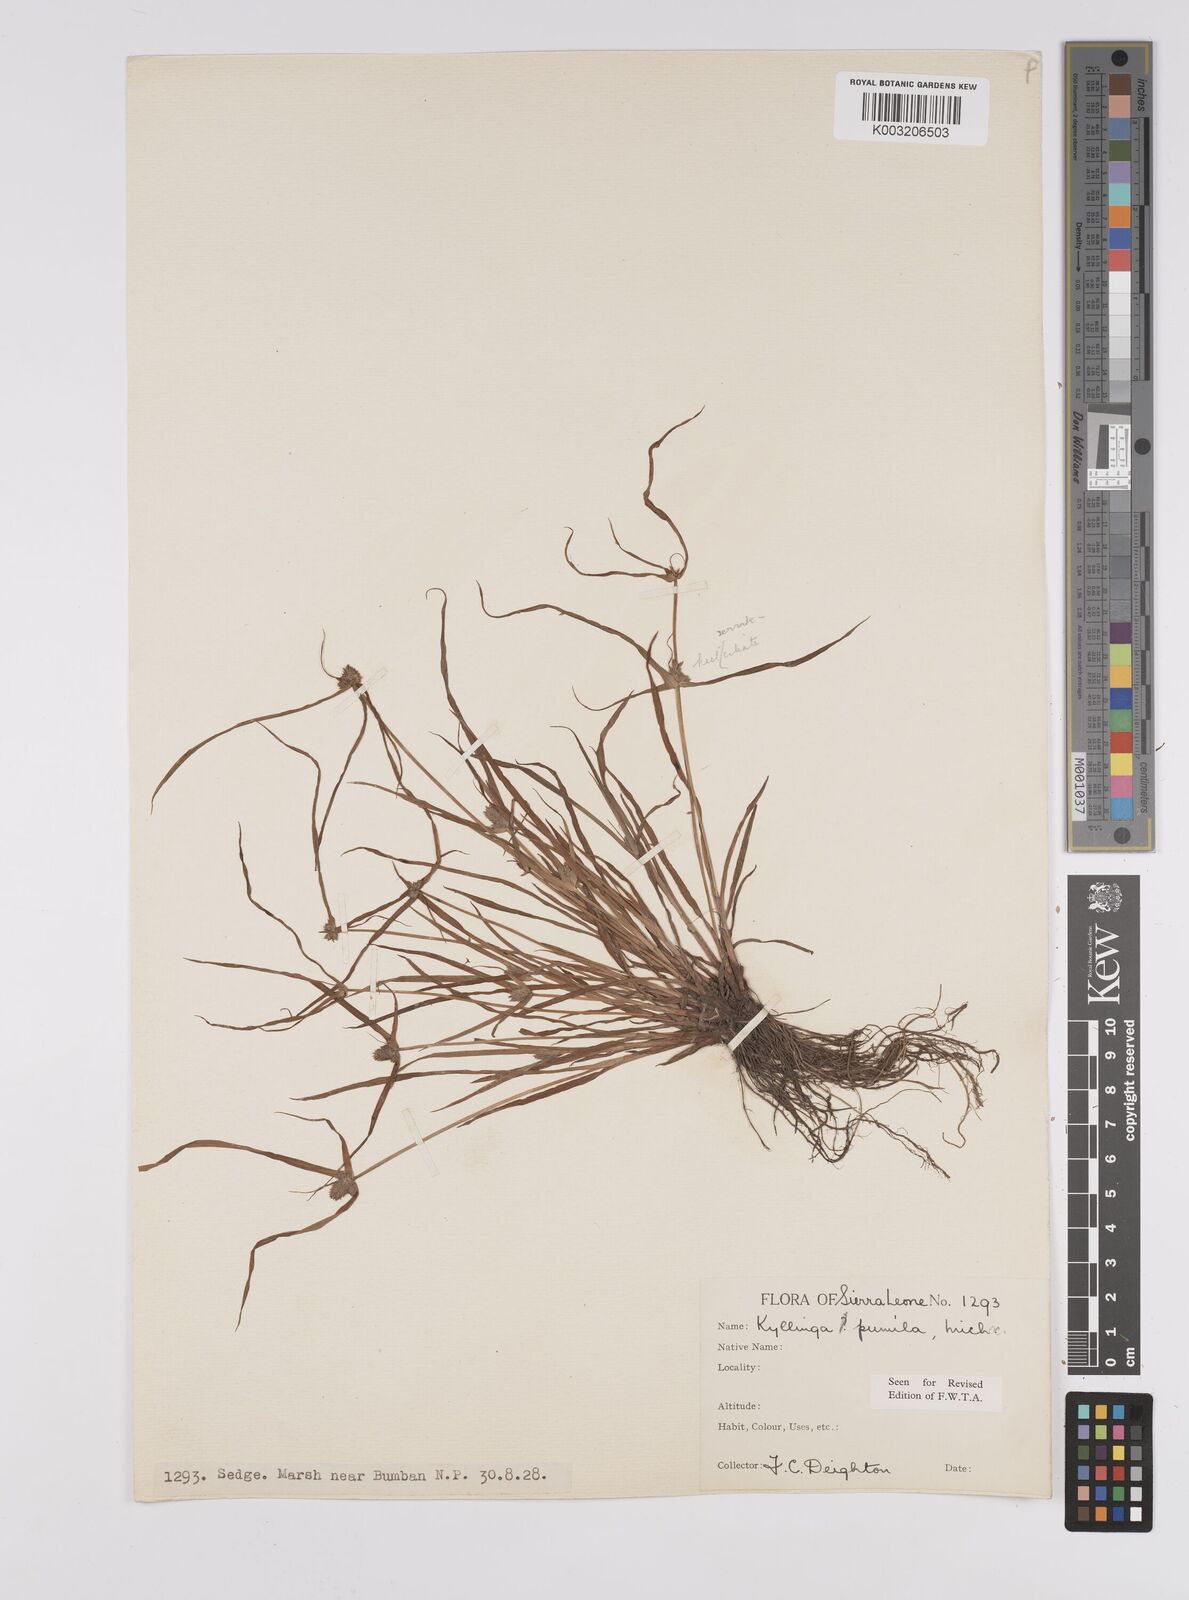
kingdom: Plantae
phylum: Tracheophyta
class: Liliopsida
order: Poales
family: Cyperaceae
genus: Cyperus
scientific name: Cyperus
